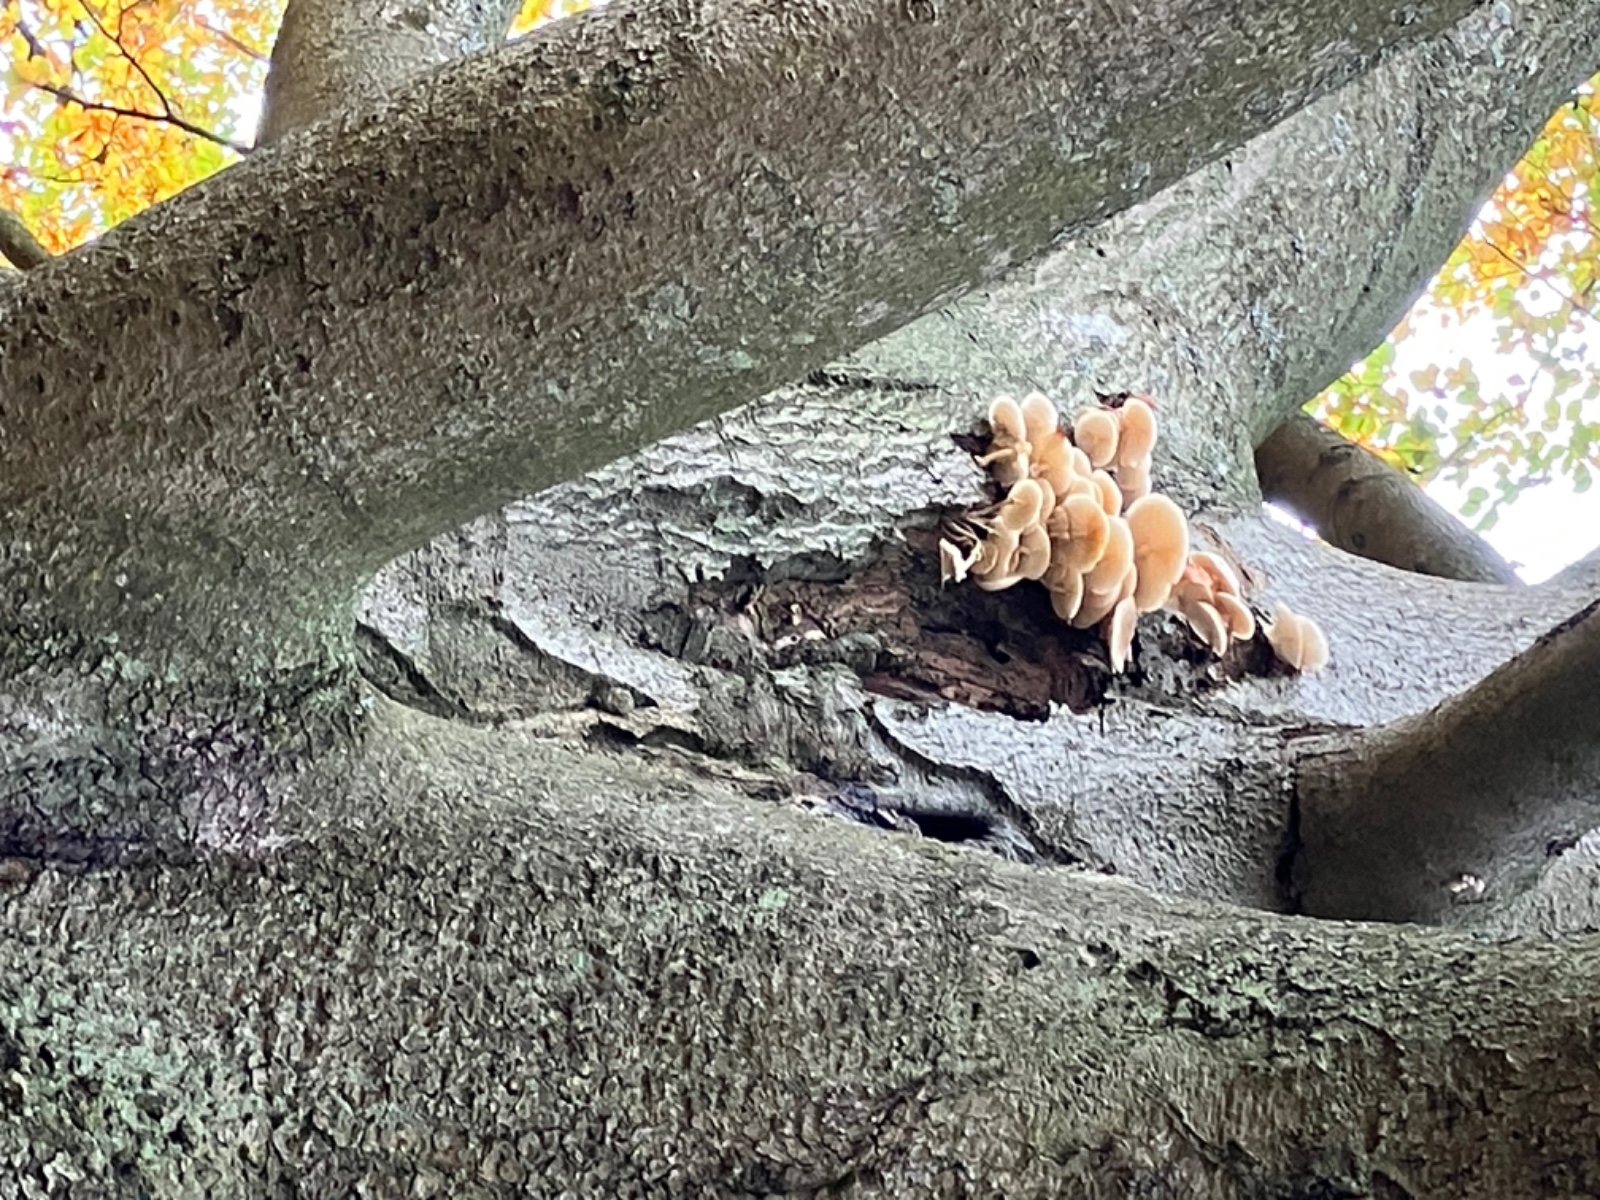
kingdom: Fungi
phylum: Basidiomycota
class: Agaricomycetes
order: Agaricales
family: Physalacriaceae
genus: Mucidula
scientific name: Mucidula mucida
